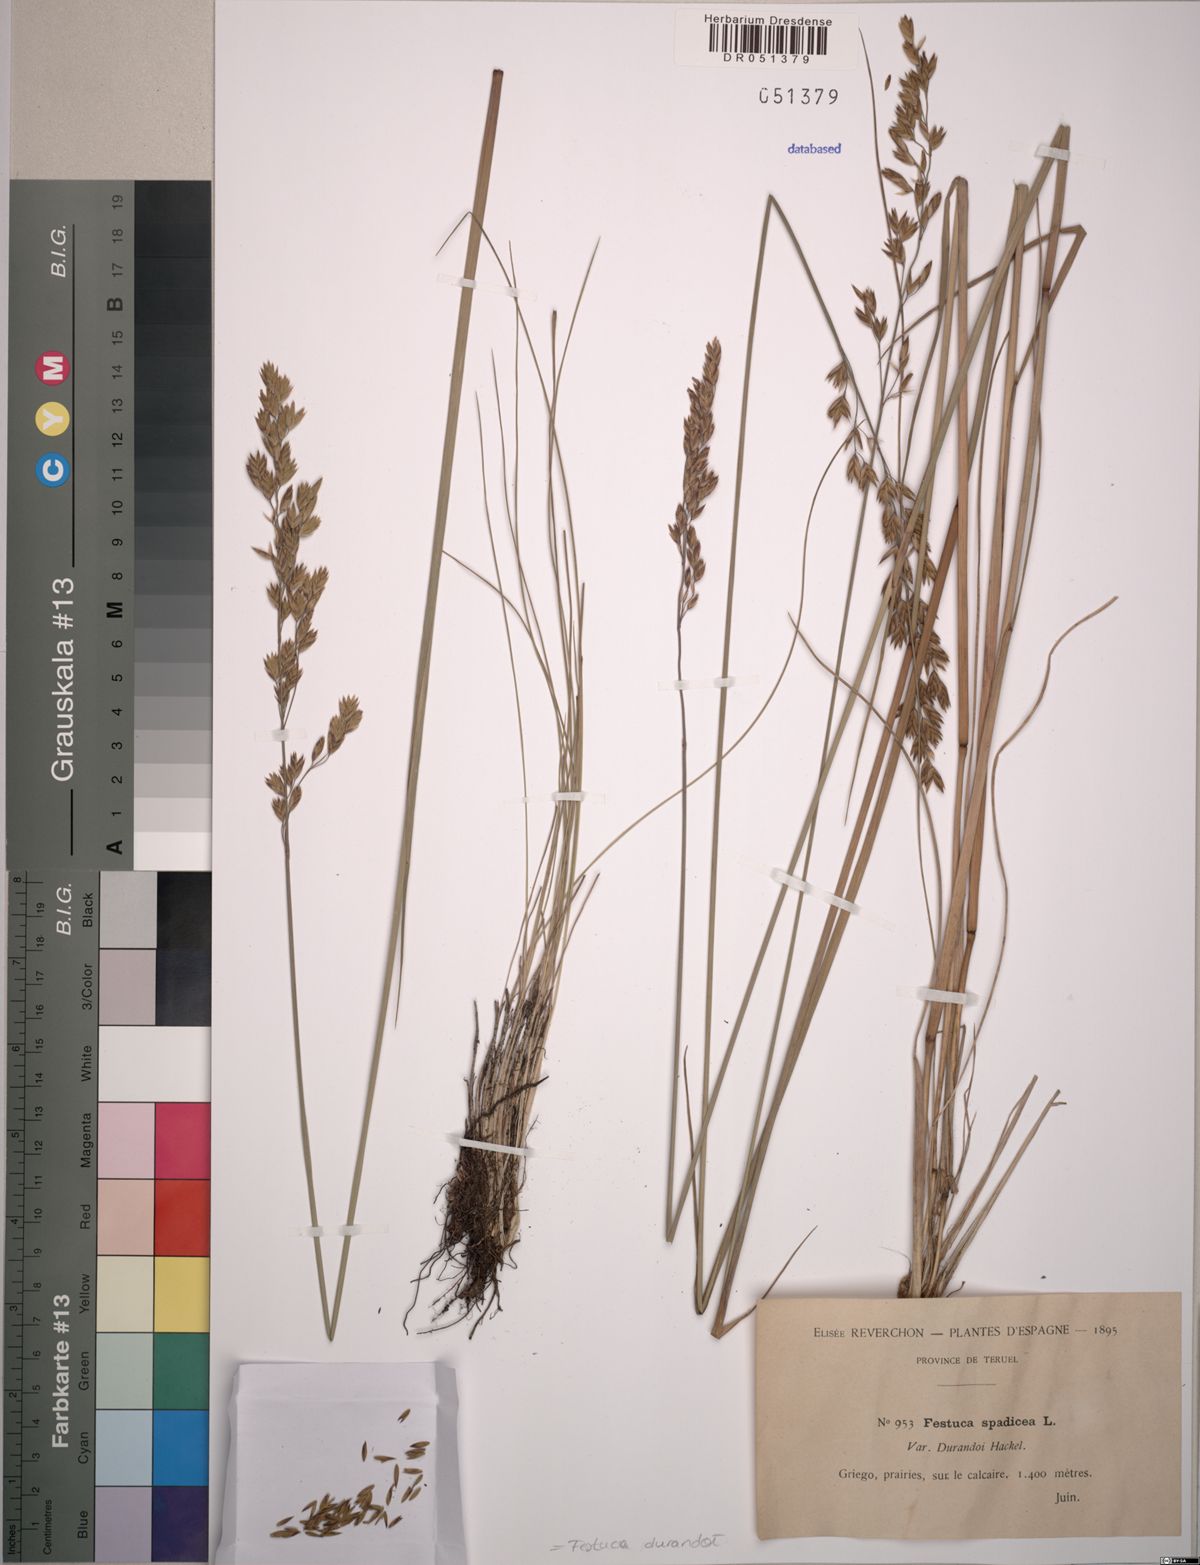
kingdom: Plantae
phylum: Tracheophyta
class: Liliopsida
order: Poales
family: Poaceae
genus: Patzkea
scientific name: Patzkea durandoi
